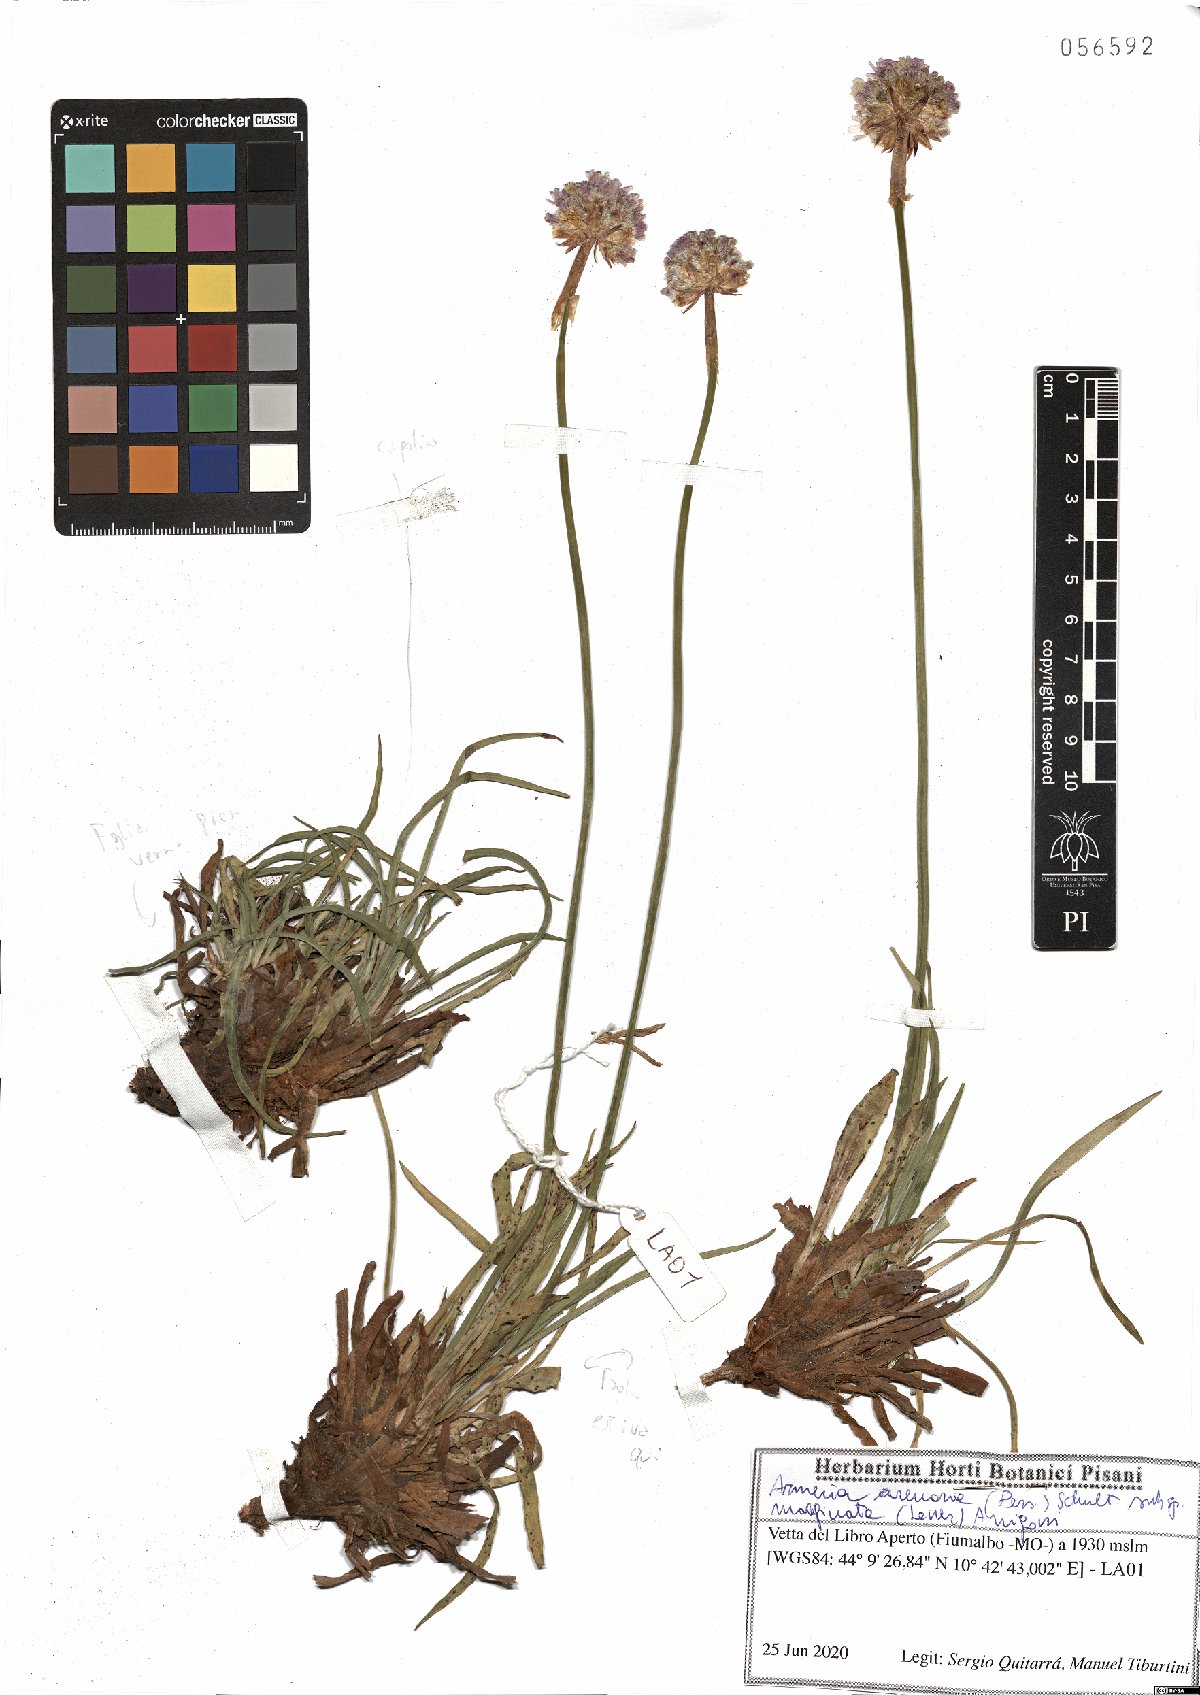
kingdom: Plantae
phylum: Tracheophyta
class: Magnoliopsida
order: Caryophyllales
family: Plumbaginaceae
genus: Armeria
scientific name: Armeria arenaria
